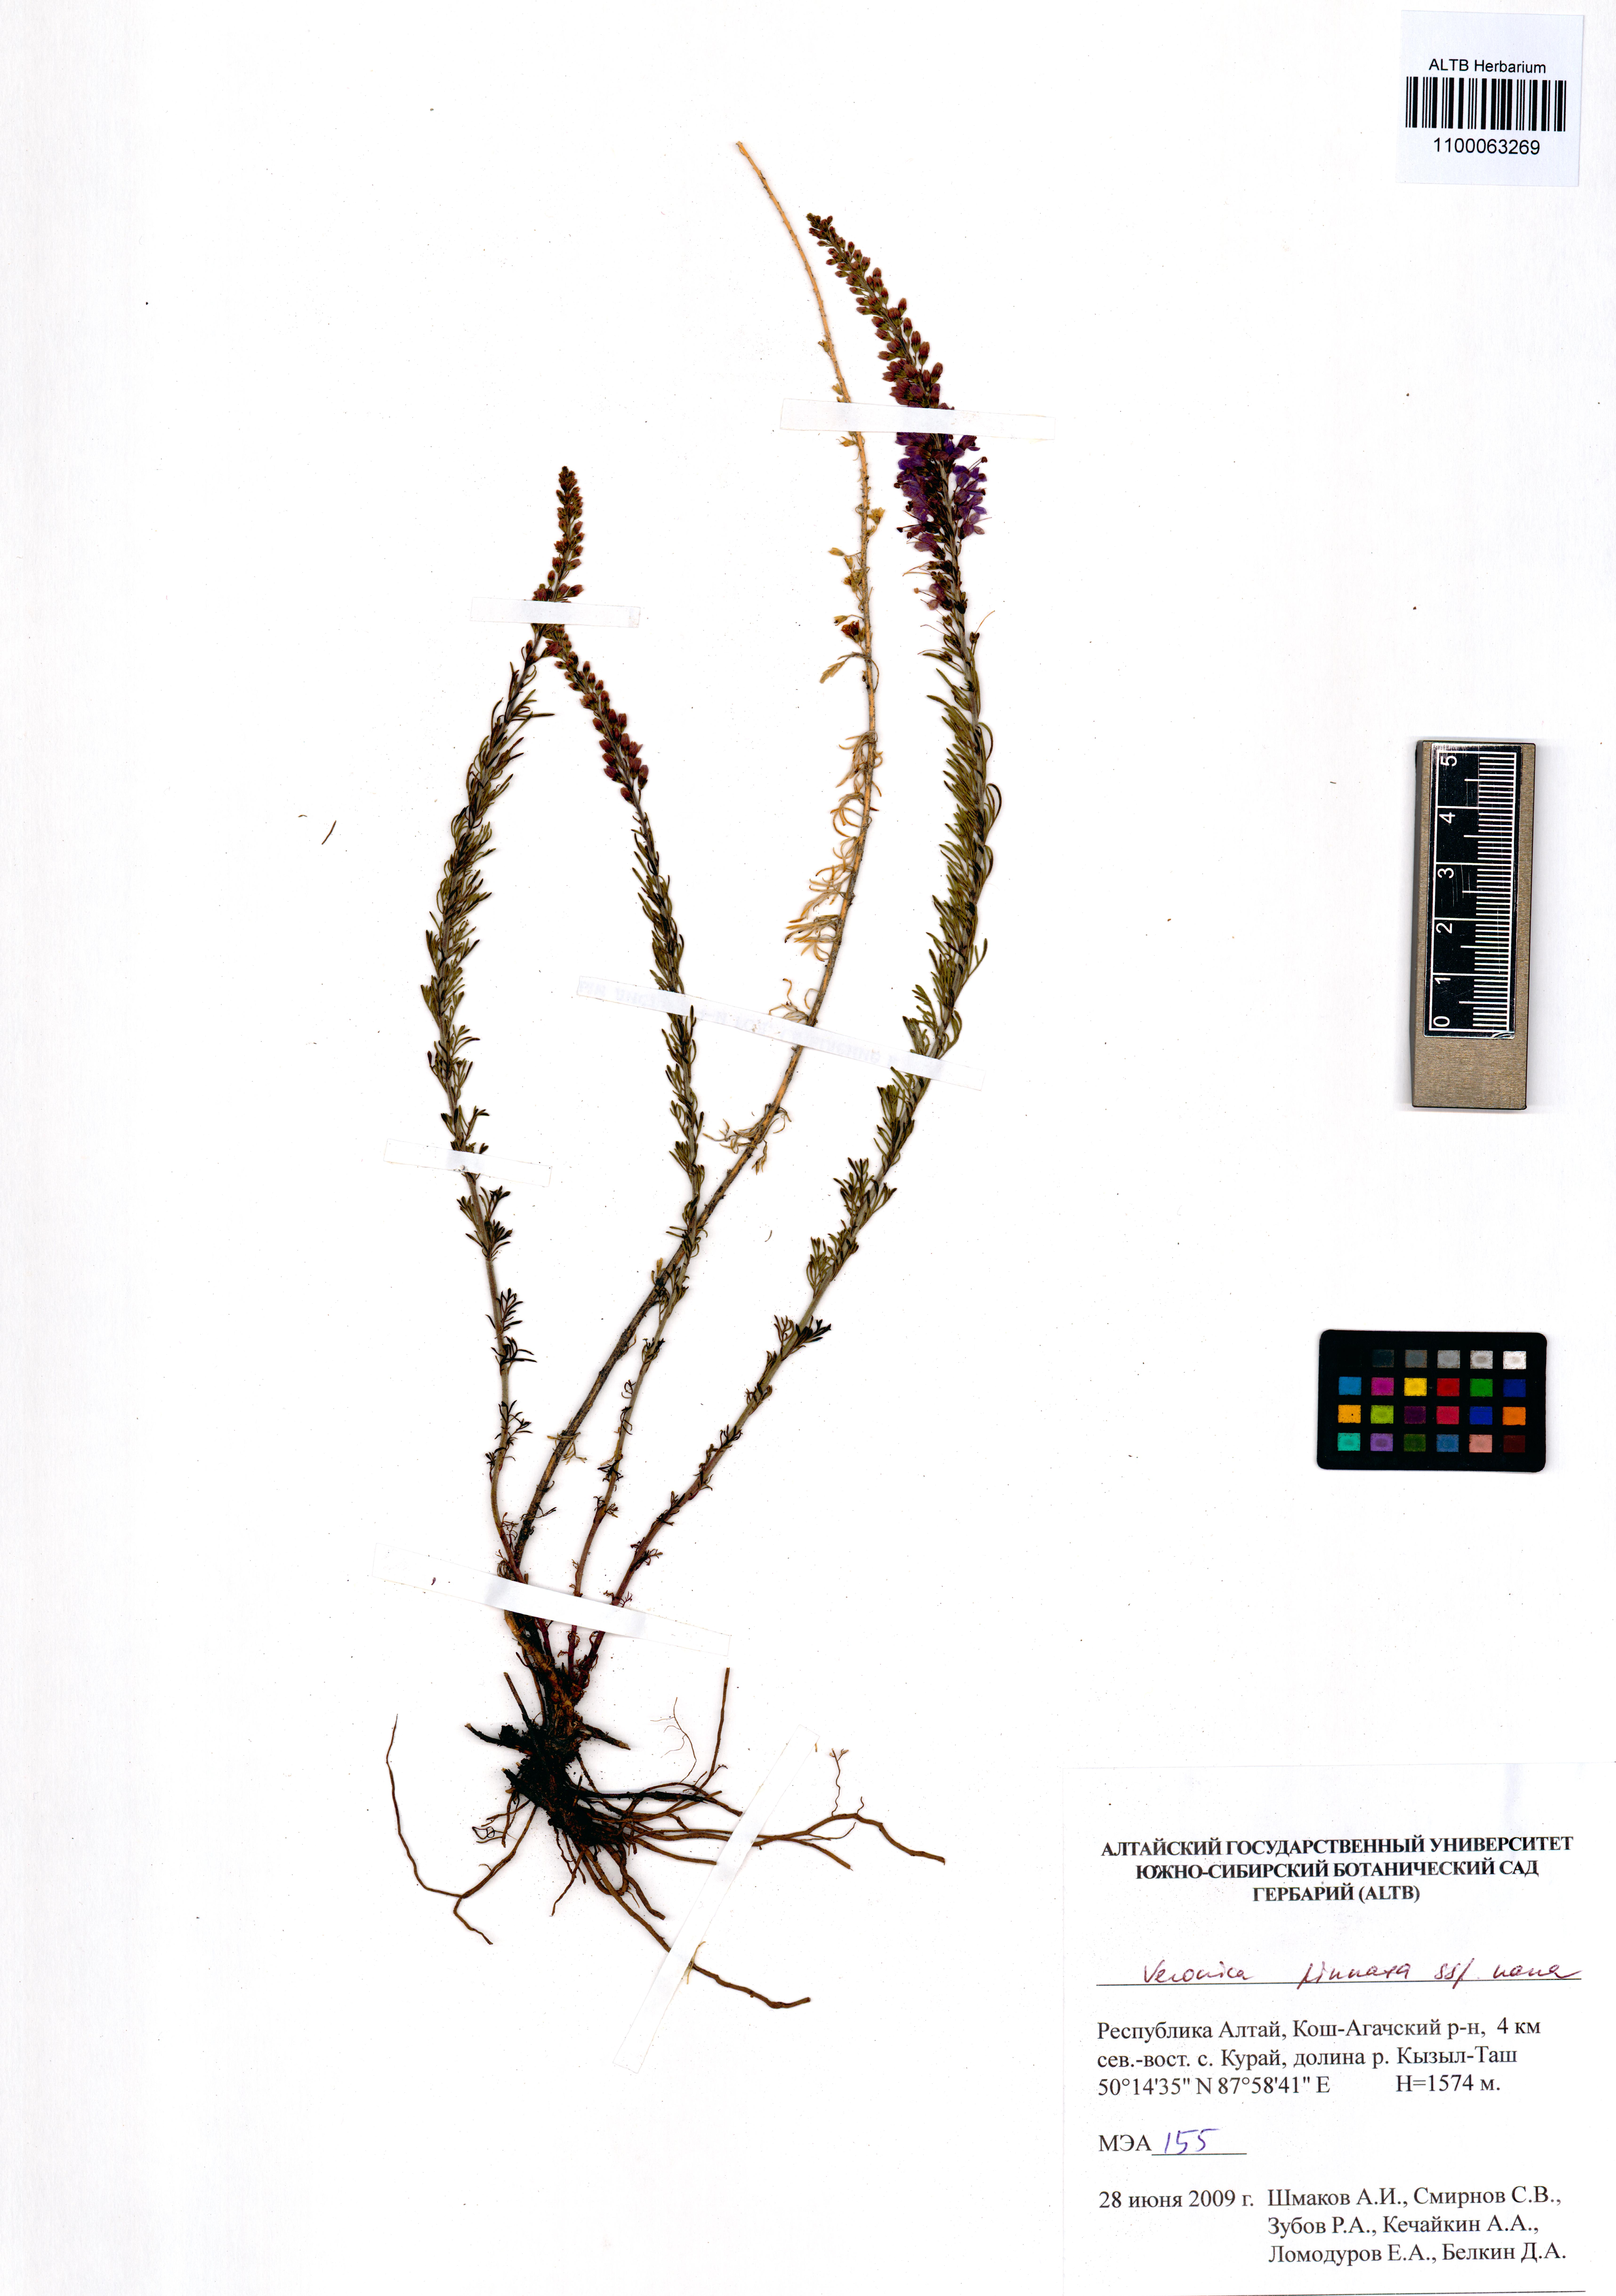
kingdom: Plantae
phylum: Tracheophyta
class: Magnoliopsida
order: Lamiales
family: Plantaginaceae
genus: Veronica
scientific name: Veronica pinnata
